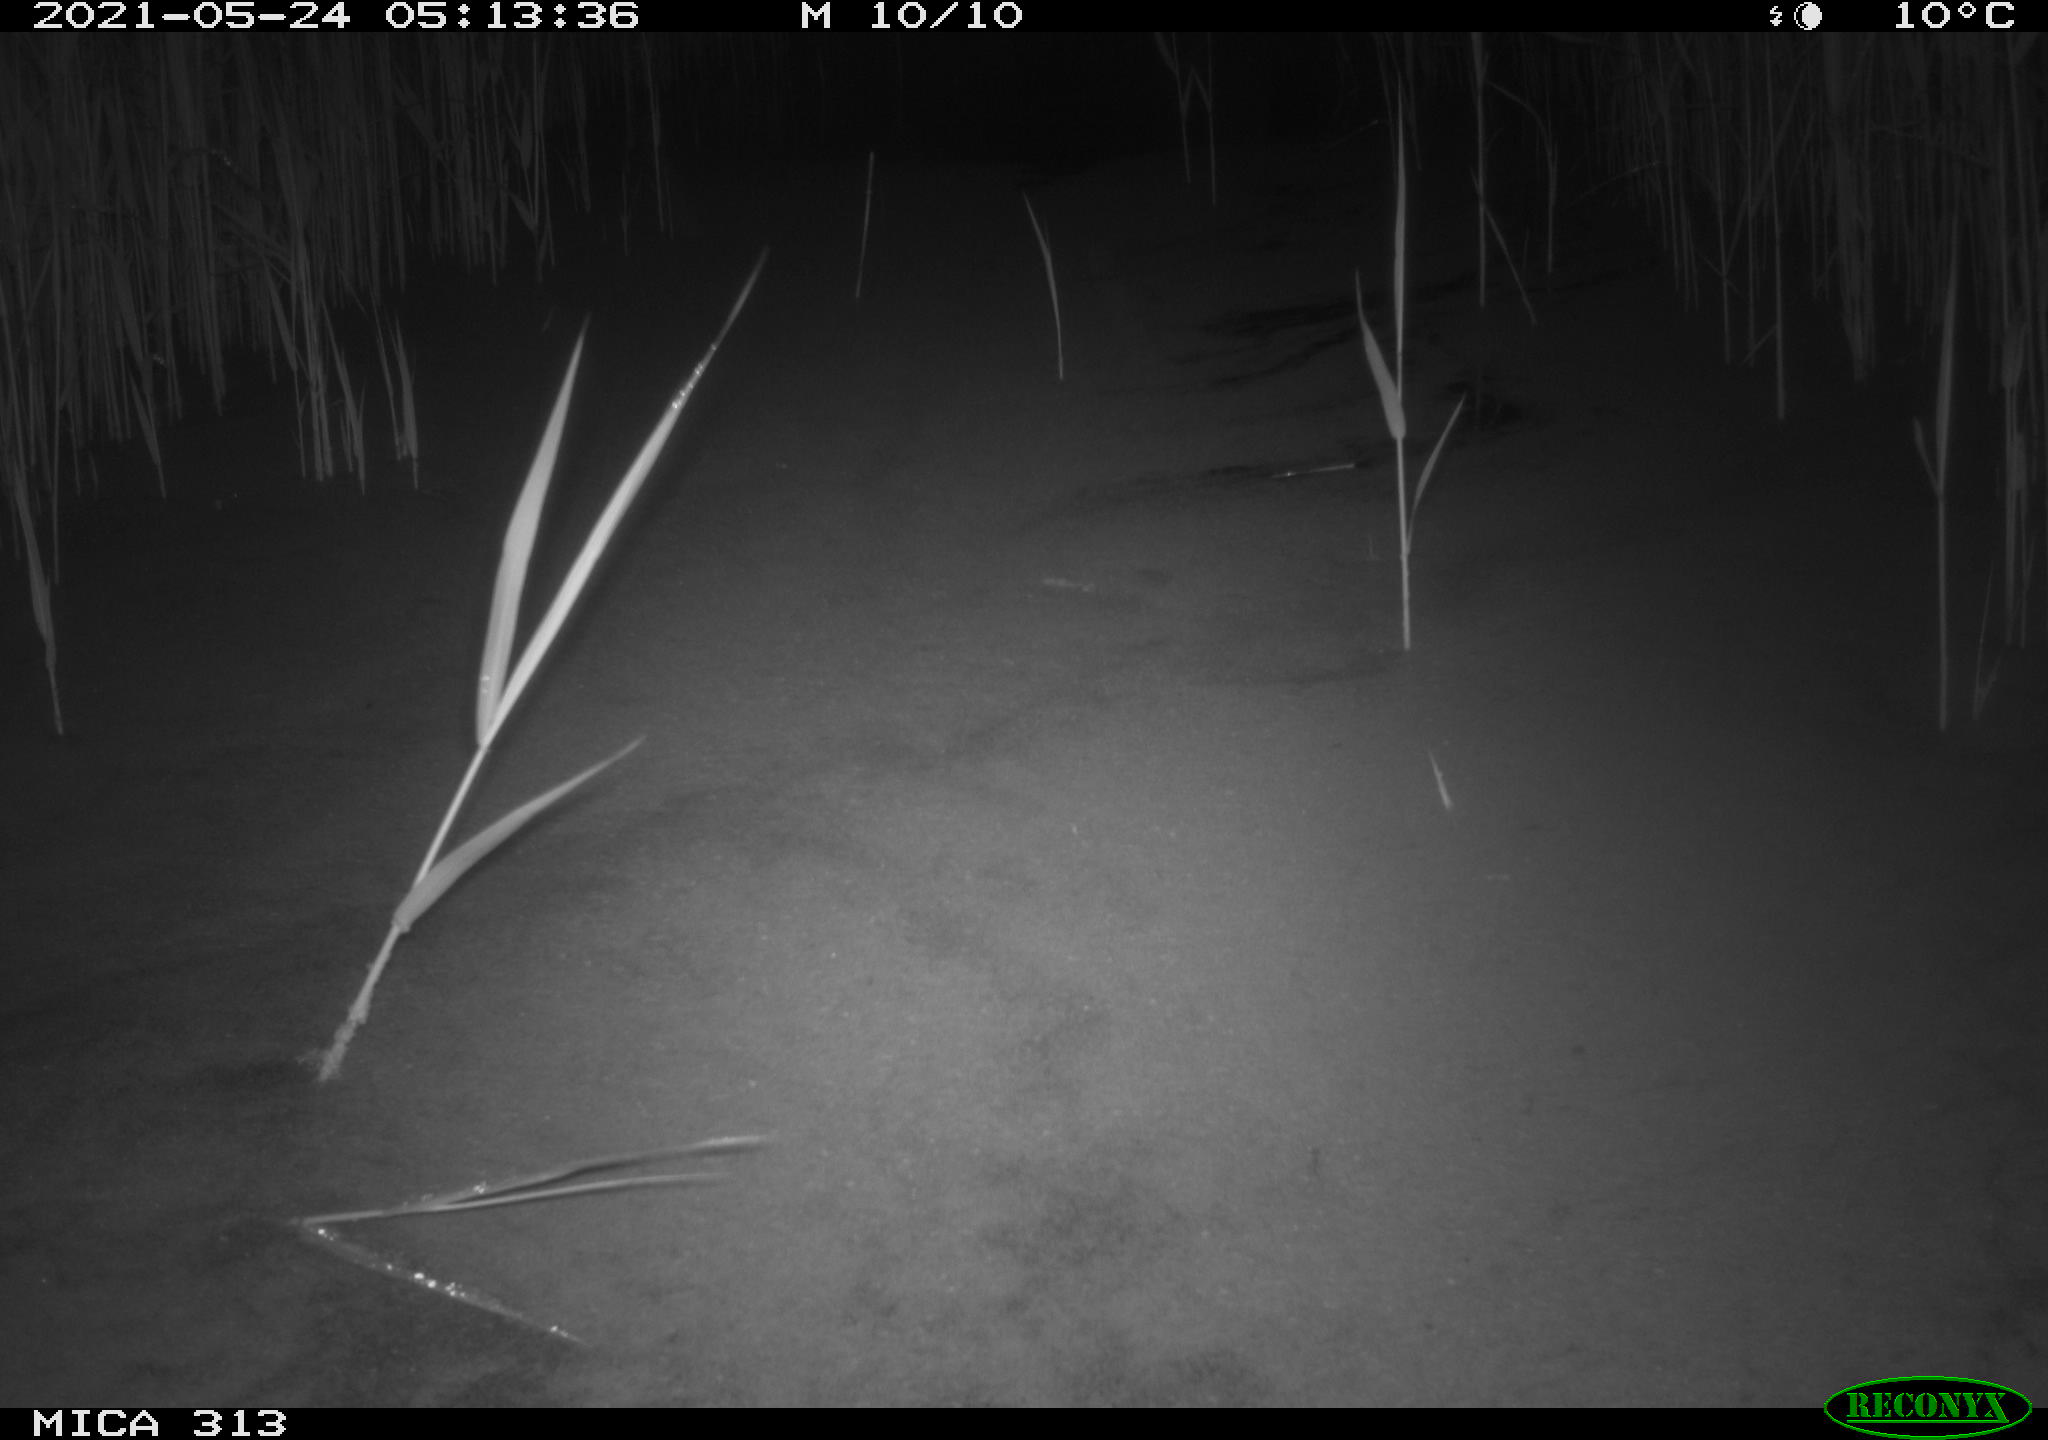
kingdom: Animalia
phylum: Chordata
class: Aves
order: Gruiformes
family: Rallidae
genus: Gallinula
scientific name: Gallinula chloropus
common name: Common moorhen
